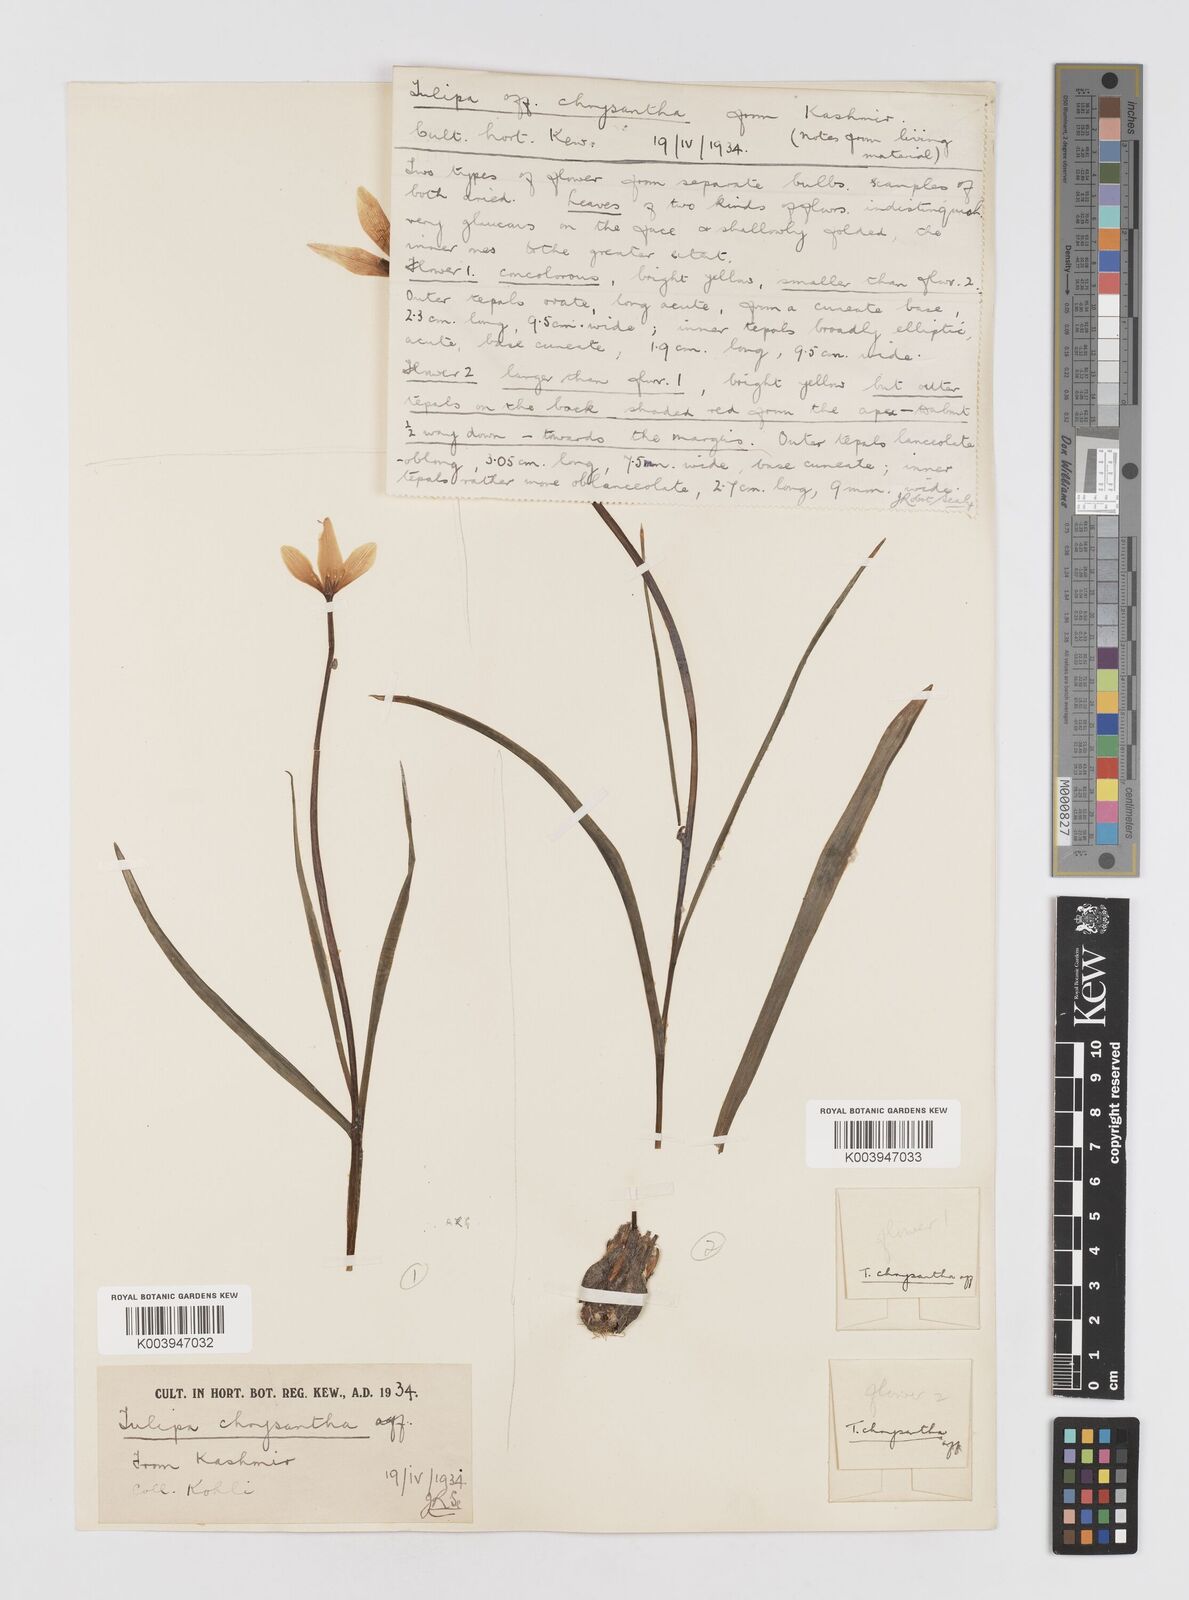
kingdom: Plantae
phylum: Tracheophyta
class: Liliopsida
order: Liliales
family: Liliaceae
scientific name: Liliaceae
